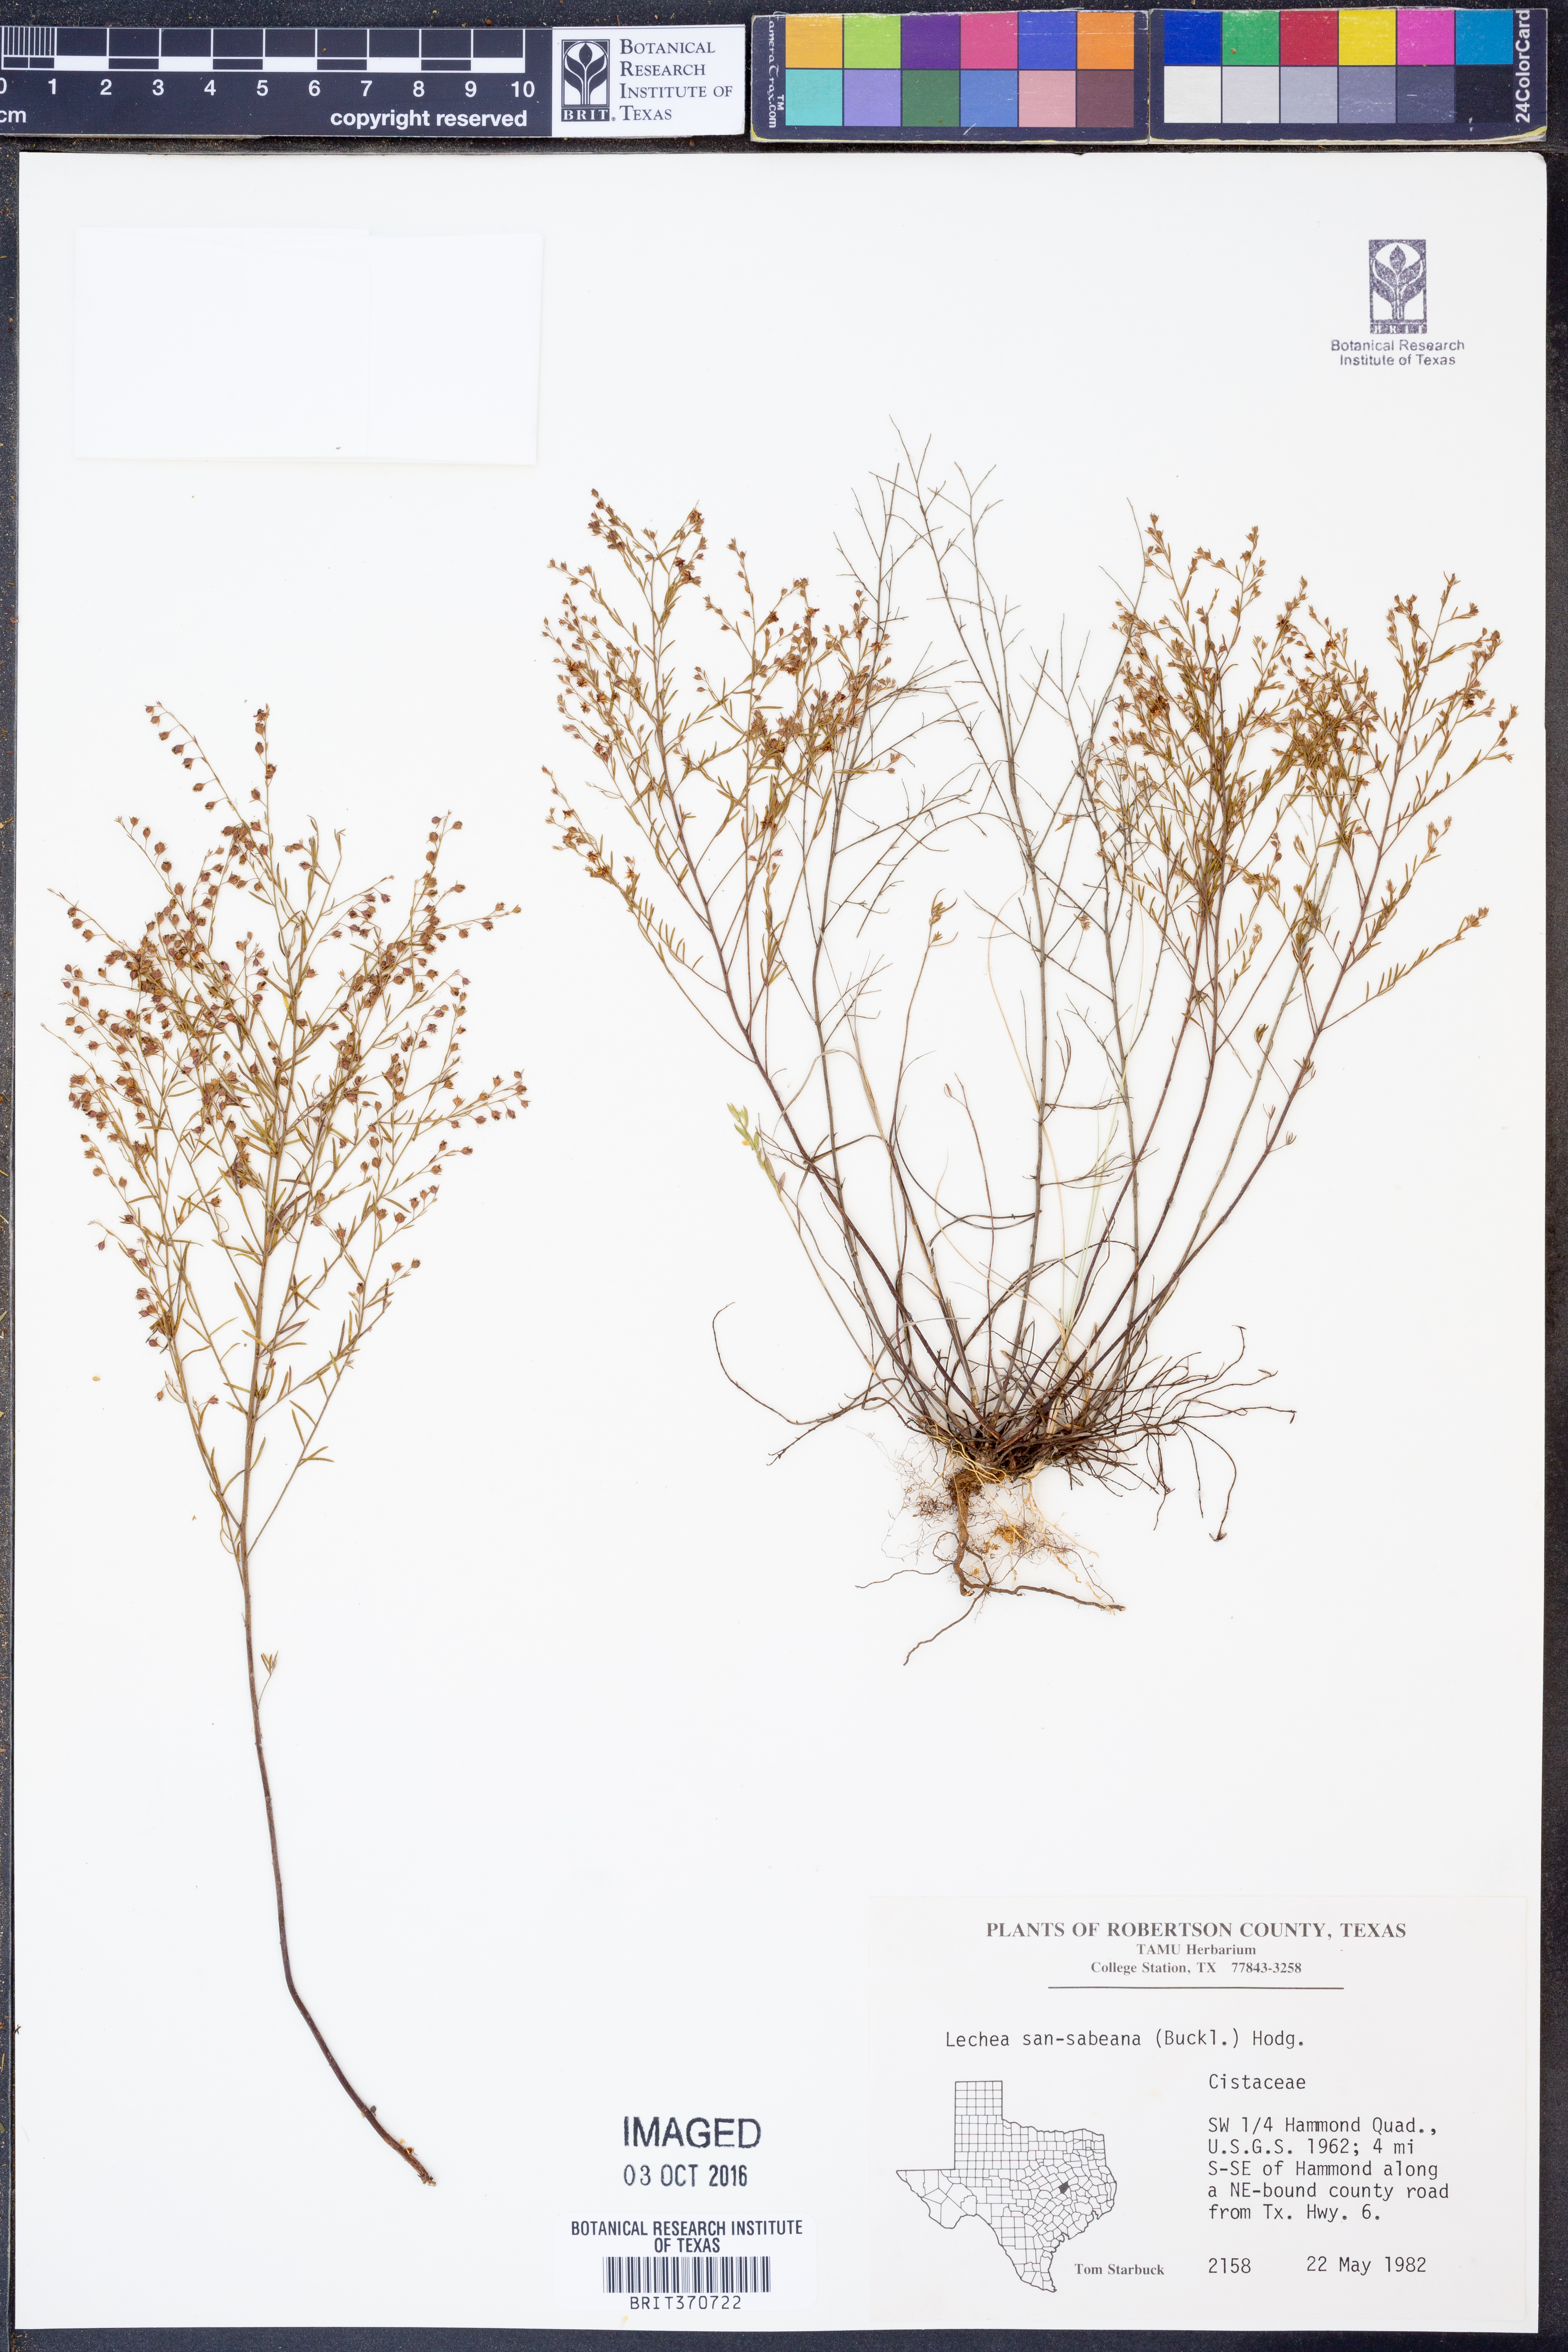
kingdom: Plantae
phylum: Tracheophyta
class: Magnoliopsida
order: Malvales
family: Cistaceae
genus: Lechea
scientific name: Lechea san-sabeana
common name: San saba pinweed
